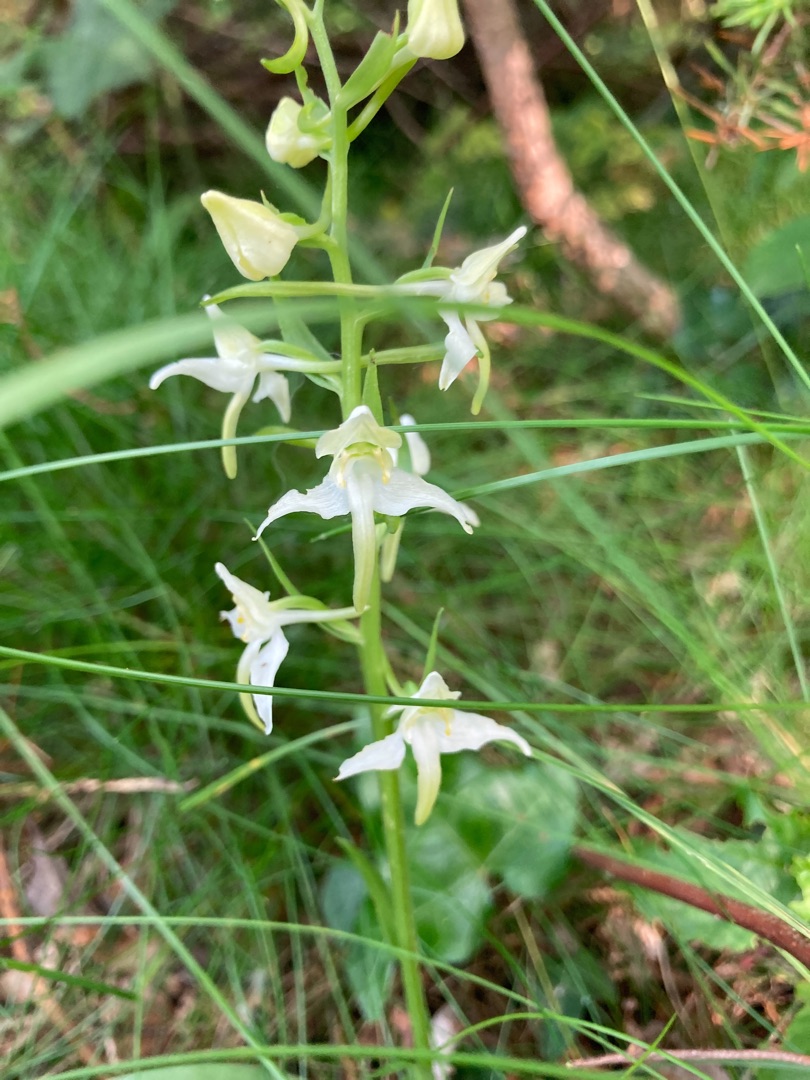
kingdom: Plantae
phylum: Tracheophyta
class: Liliopsida
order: Asparagales
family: Orchidaceae
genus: Platanthera
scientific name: Platanthera chlorantha
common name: Skov-gøgelilje
